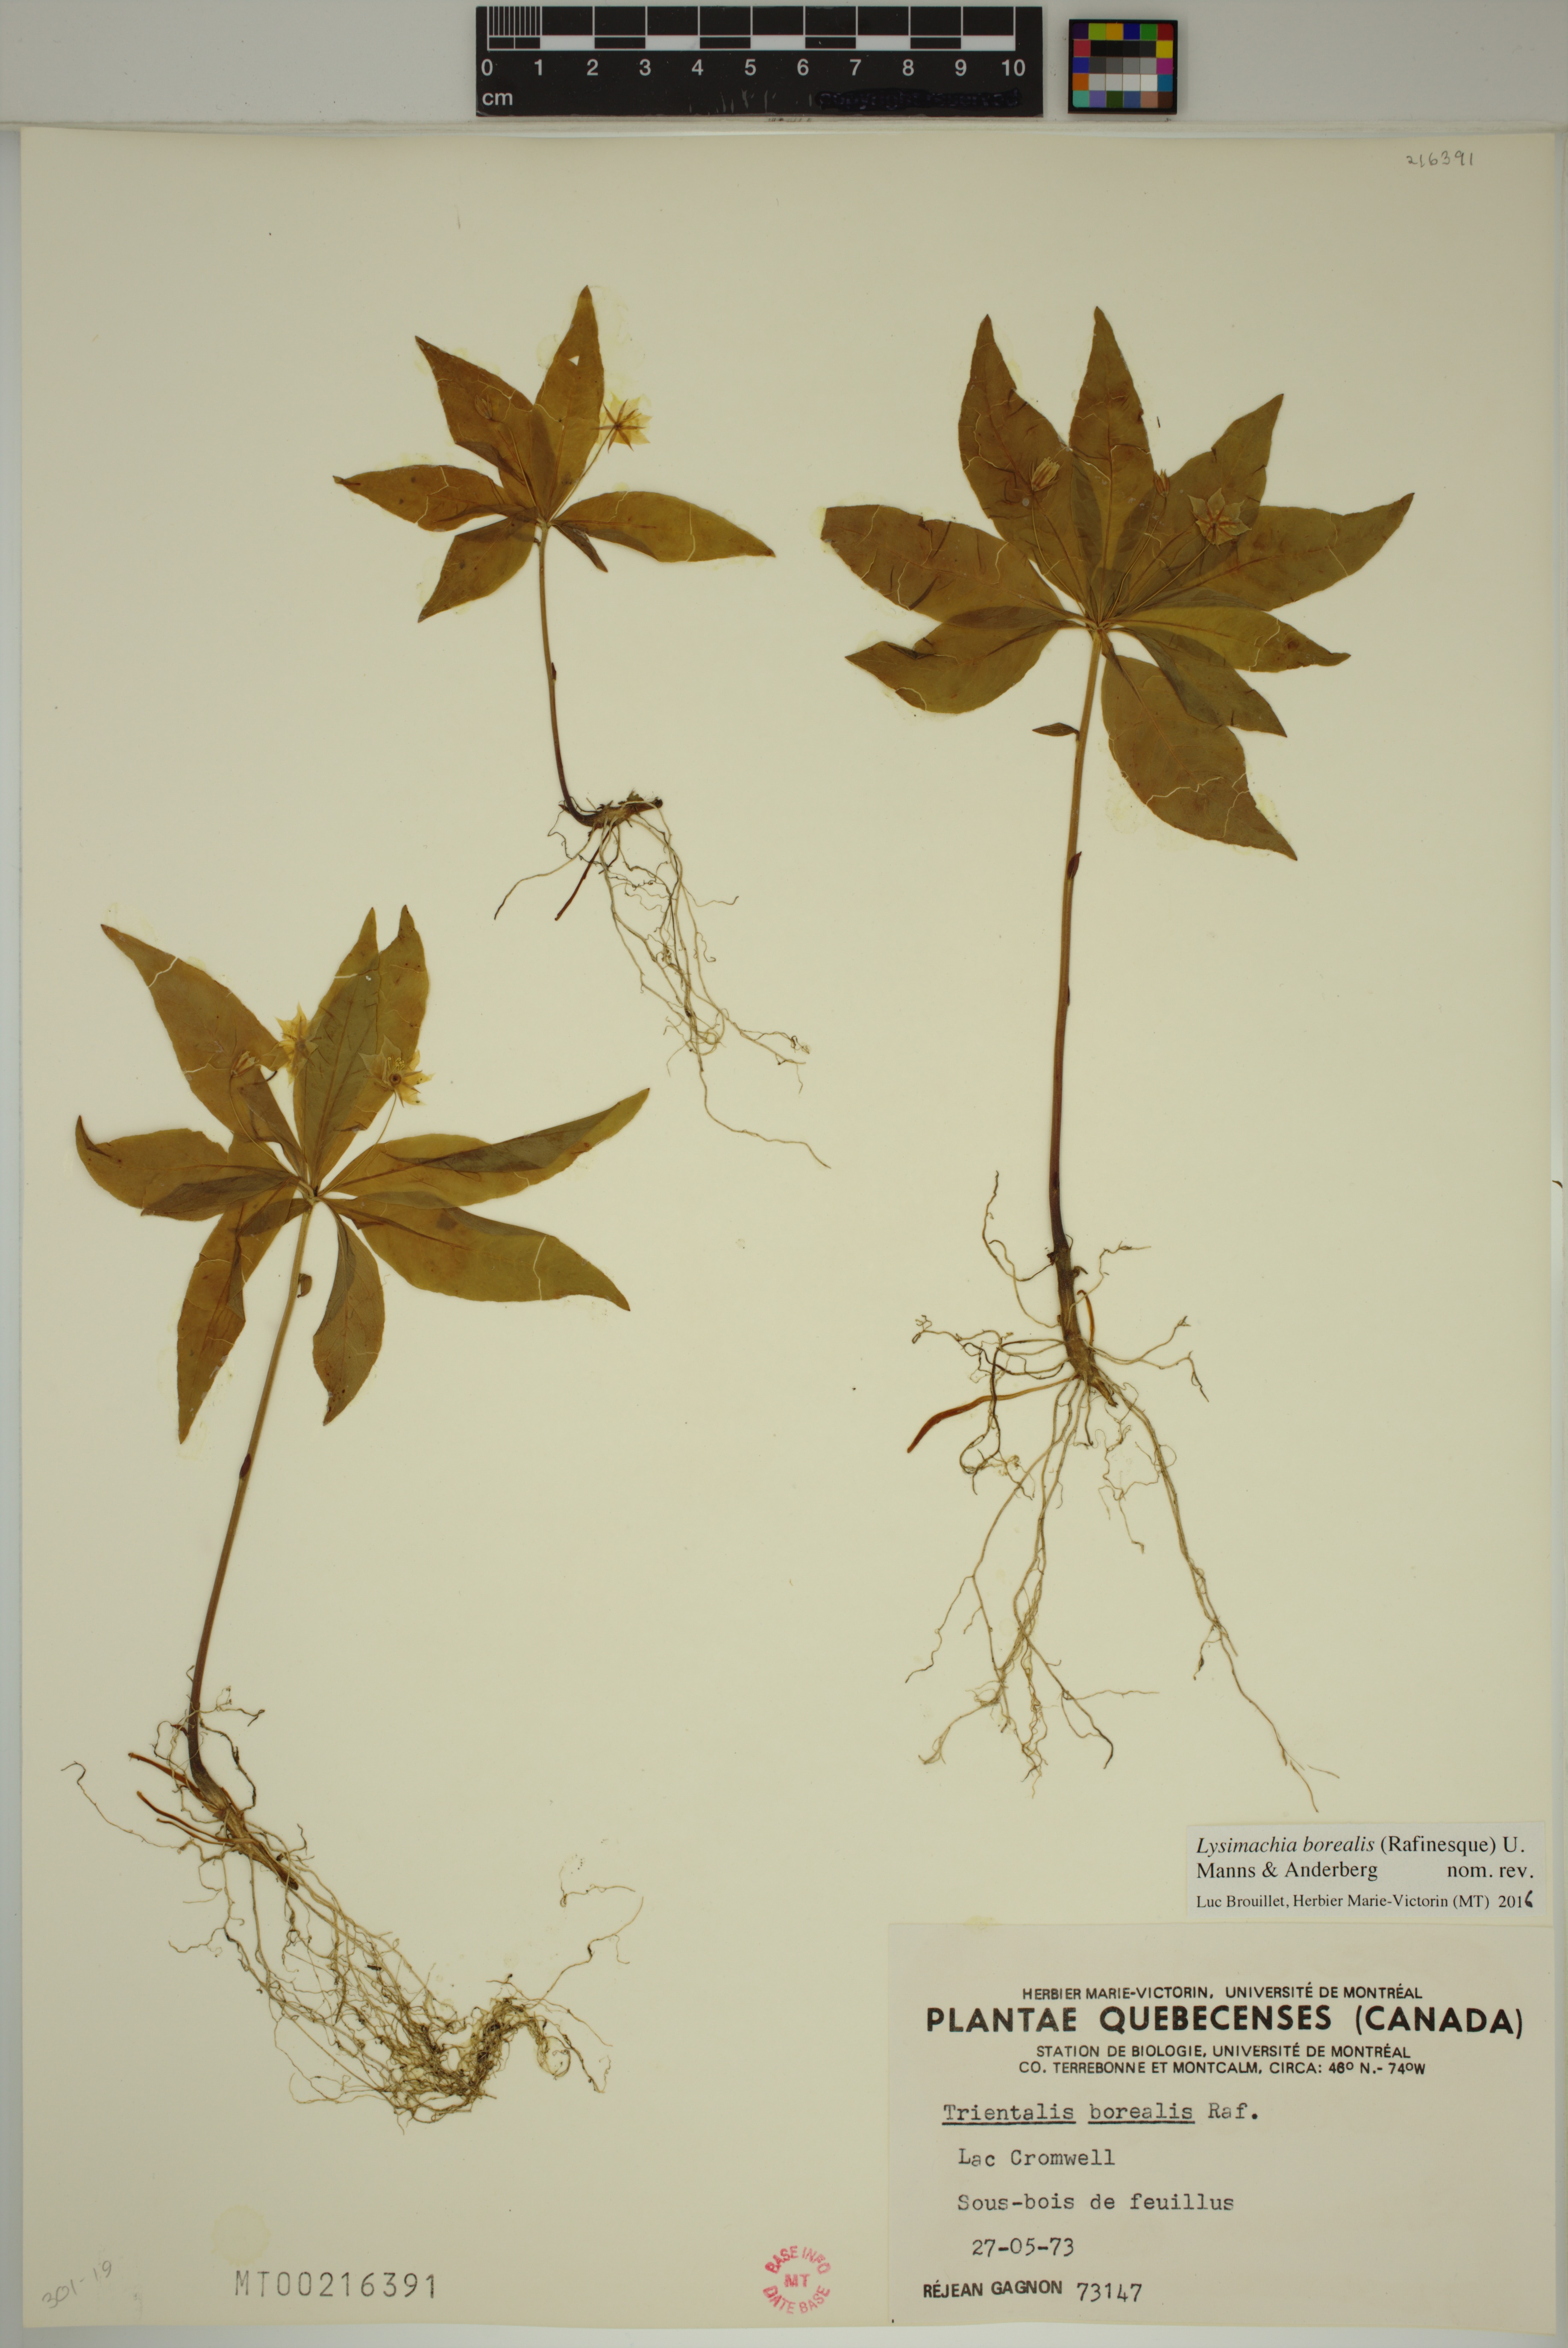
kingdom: Plantae
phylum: Tracheophyta
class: Magnoliopsida
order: Ericales
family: Primulaceae
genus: Lysimachia
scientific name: Lysimachia borealis
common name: American starflower
